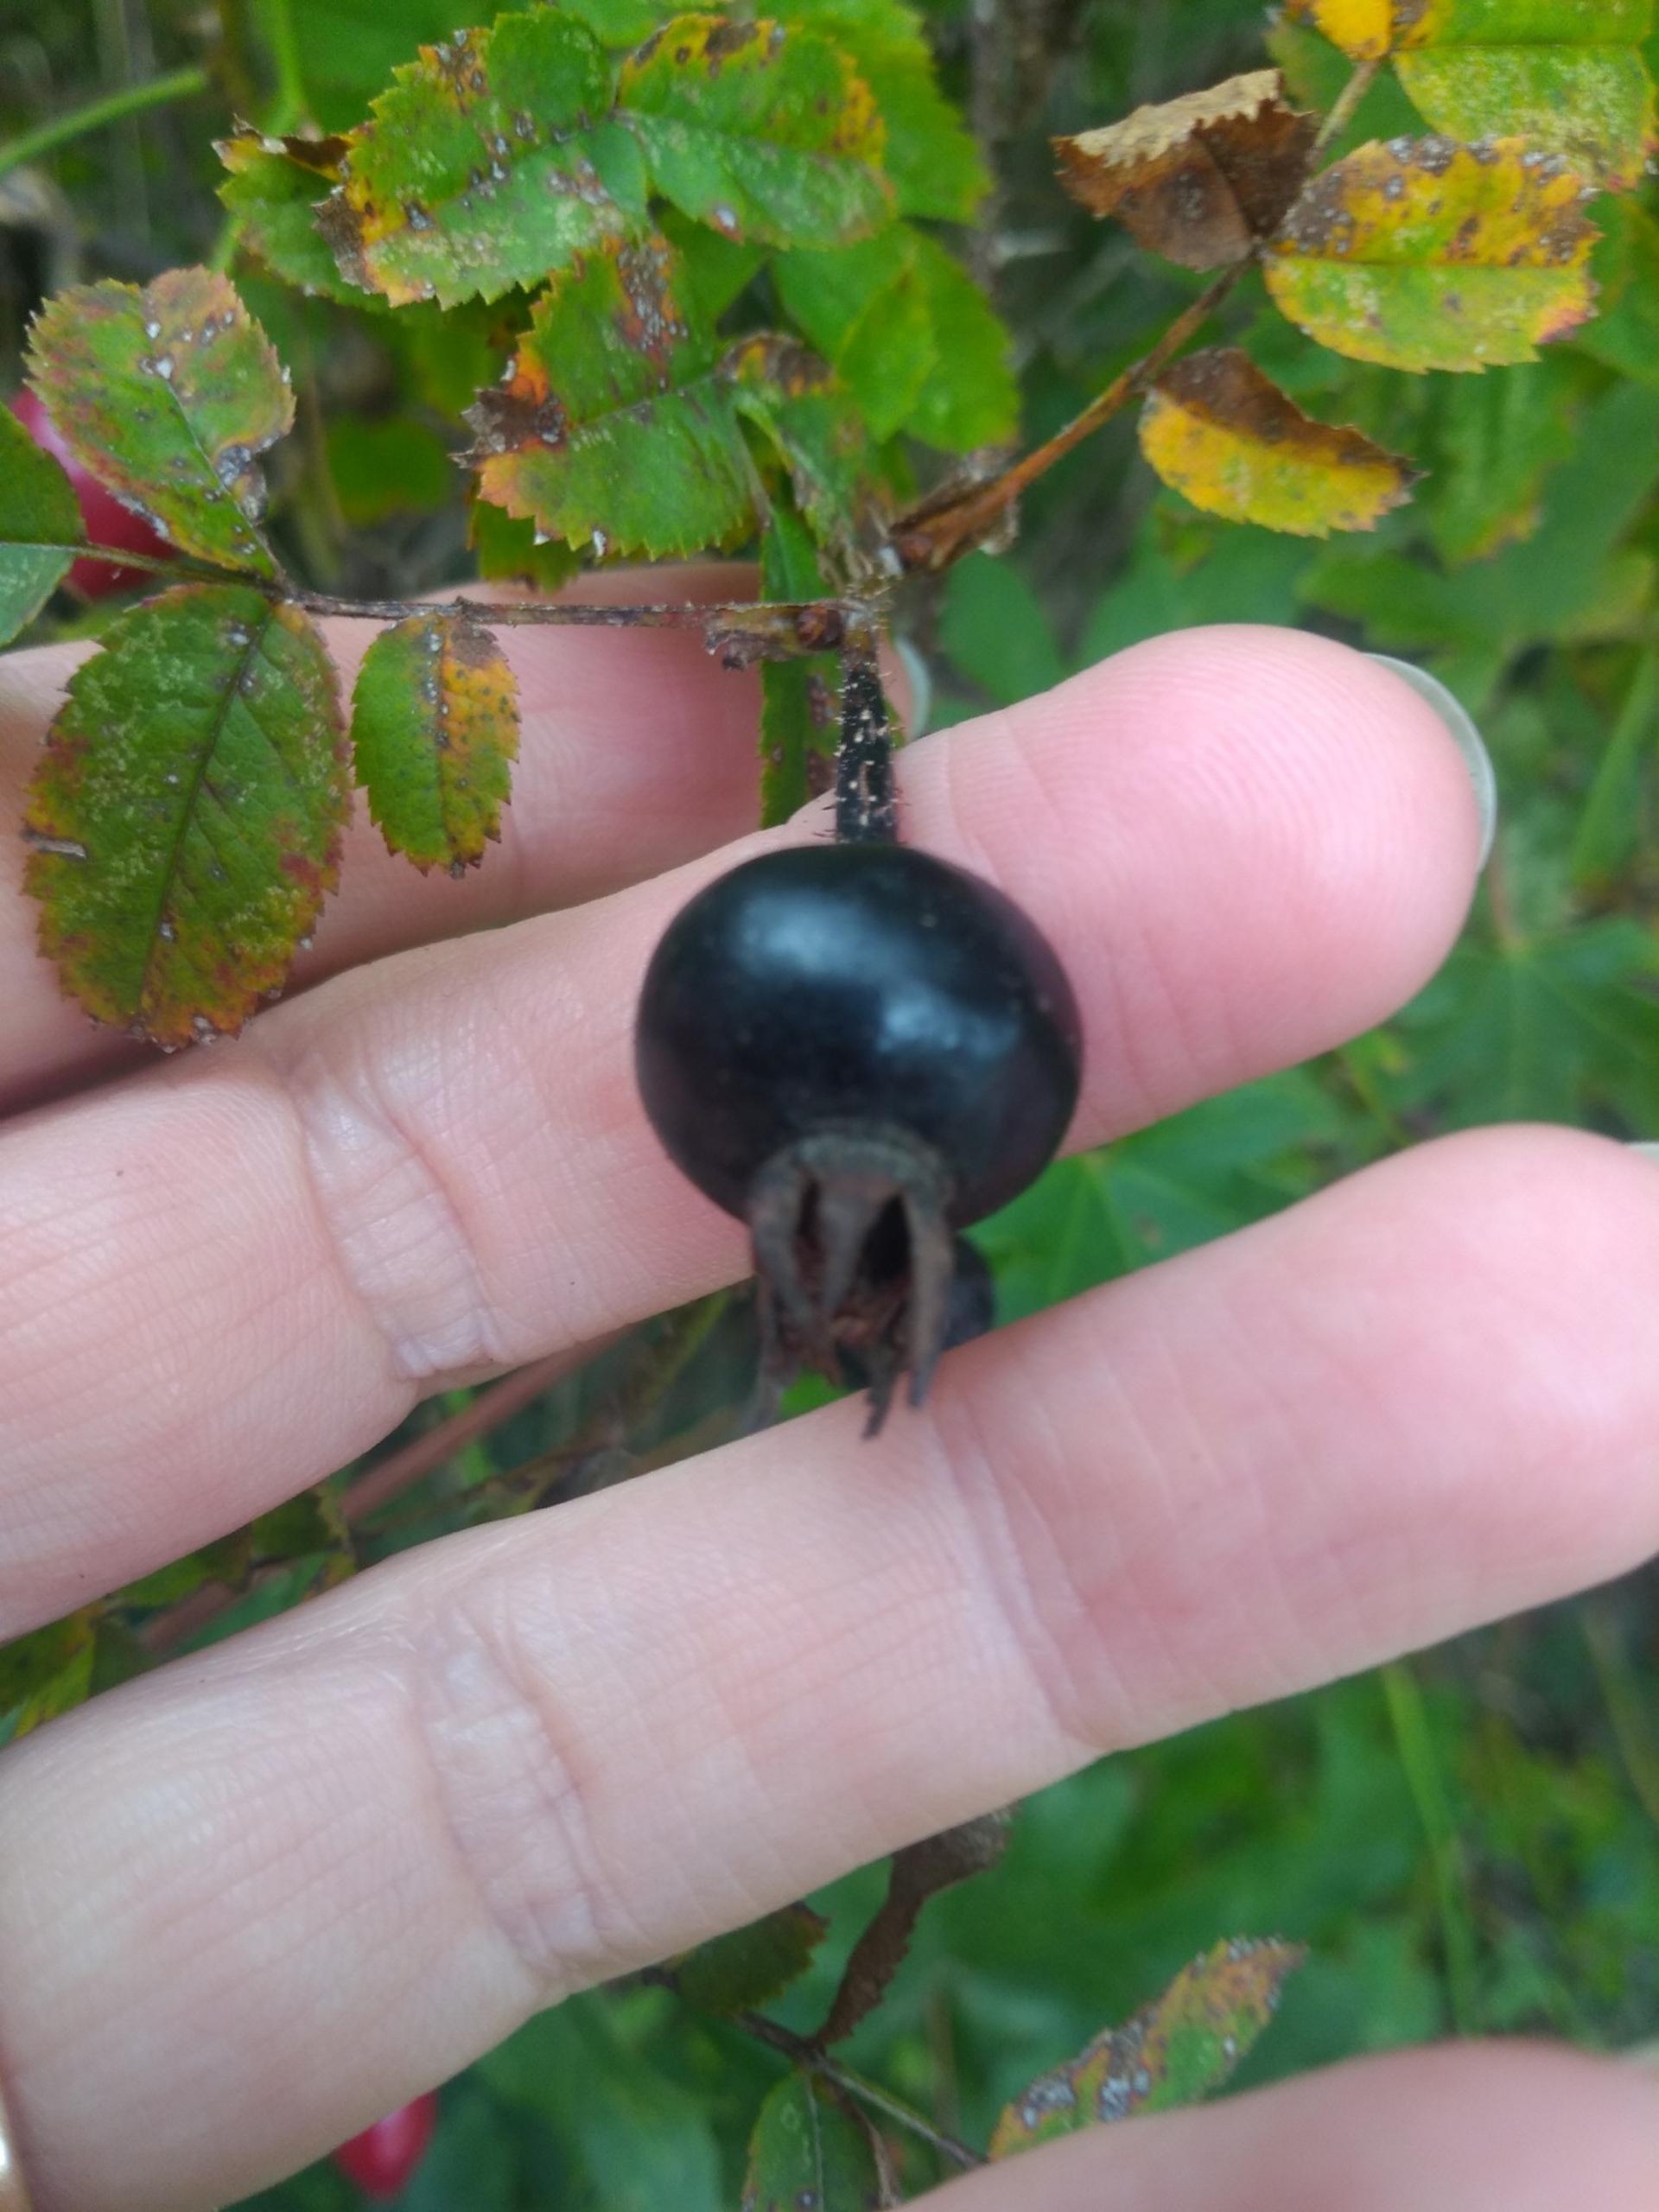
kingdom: Plantae
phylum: Tracheophyta
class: Magnoliopsida
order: Rosales
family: Rosaceae
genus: Rosa
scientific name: Rosa spinosissima
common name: Klit-rose
